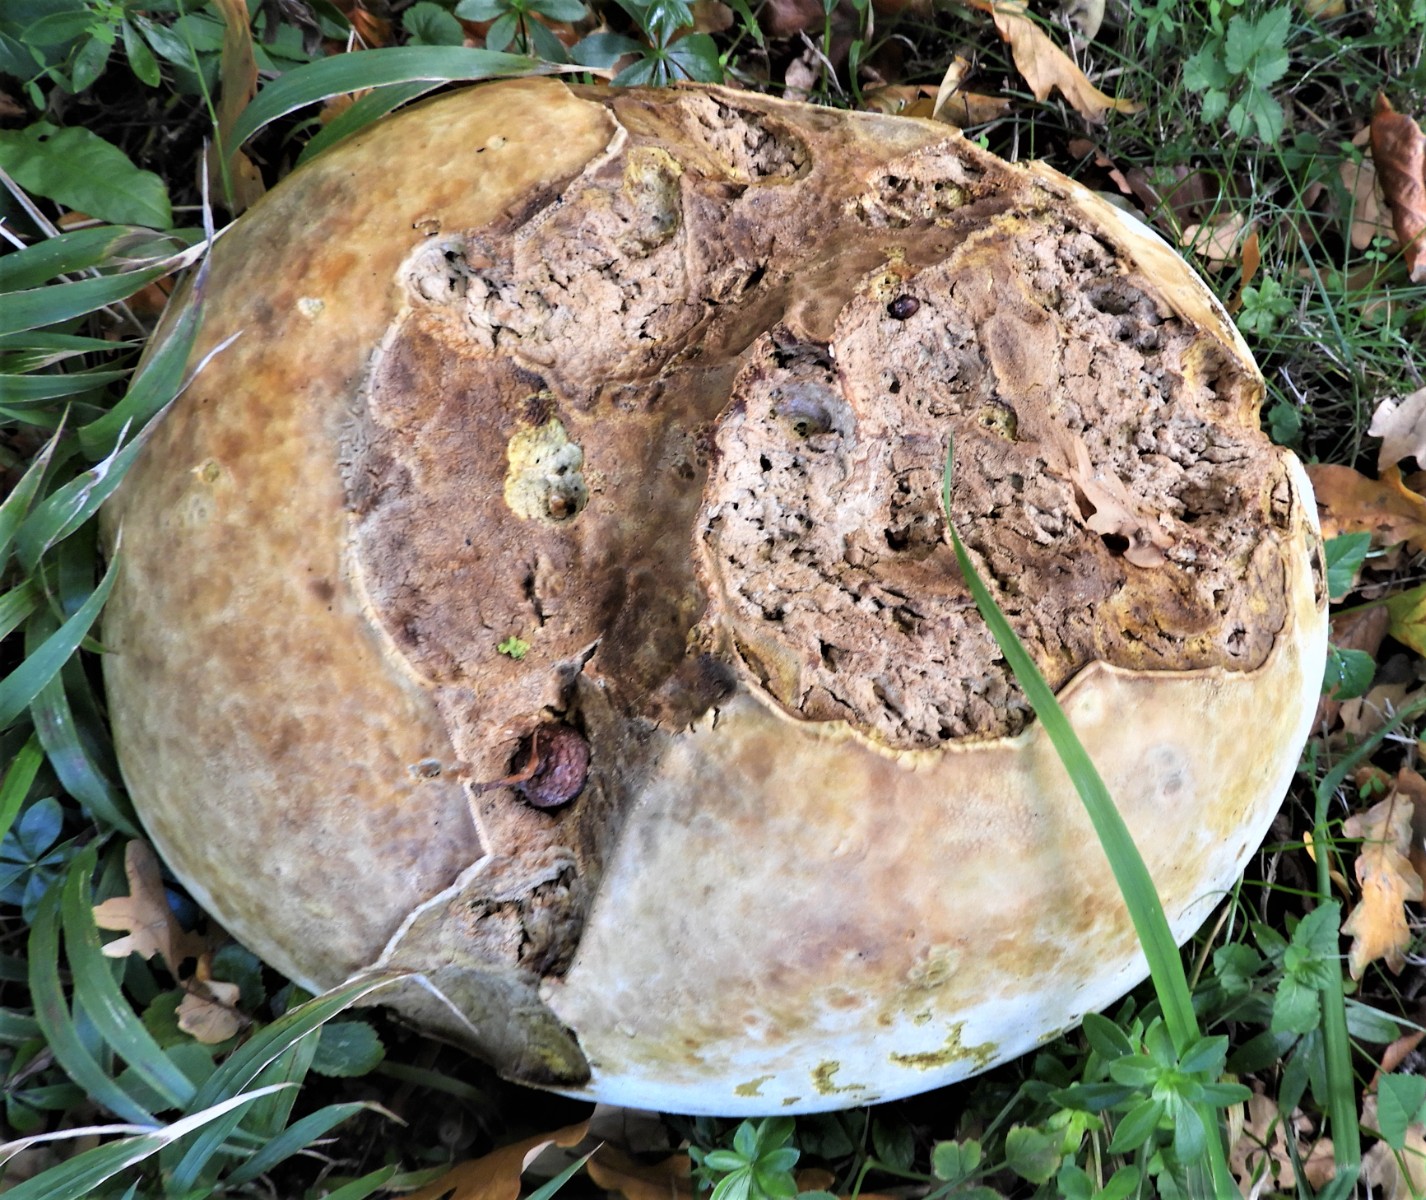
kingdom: Fungi
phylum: Basidiomycota
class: Agaricomycetes
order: Agaricales
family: Lycoperdaceae
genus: Calvatia
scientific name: Calvatia gigantea
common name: kæmpestøvbold
